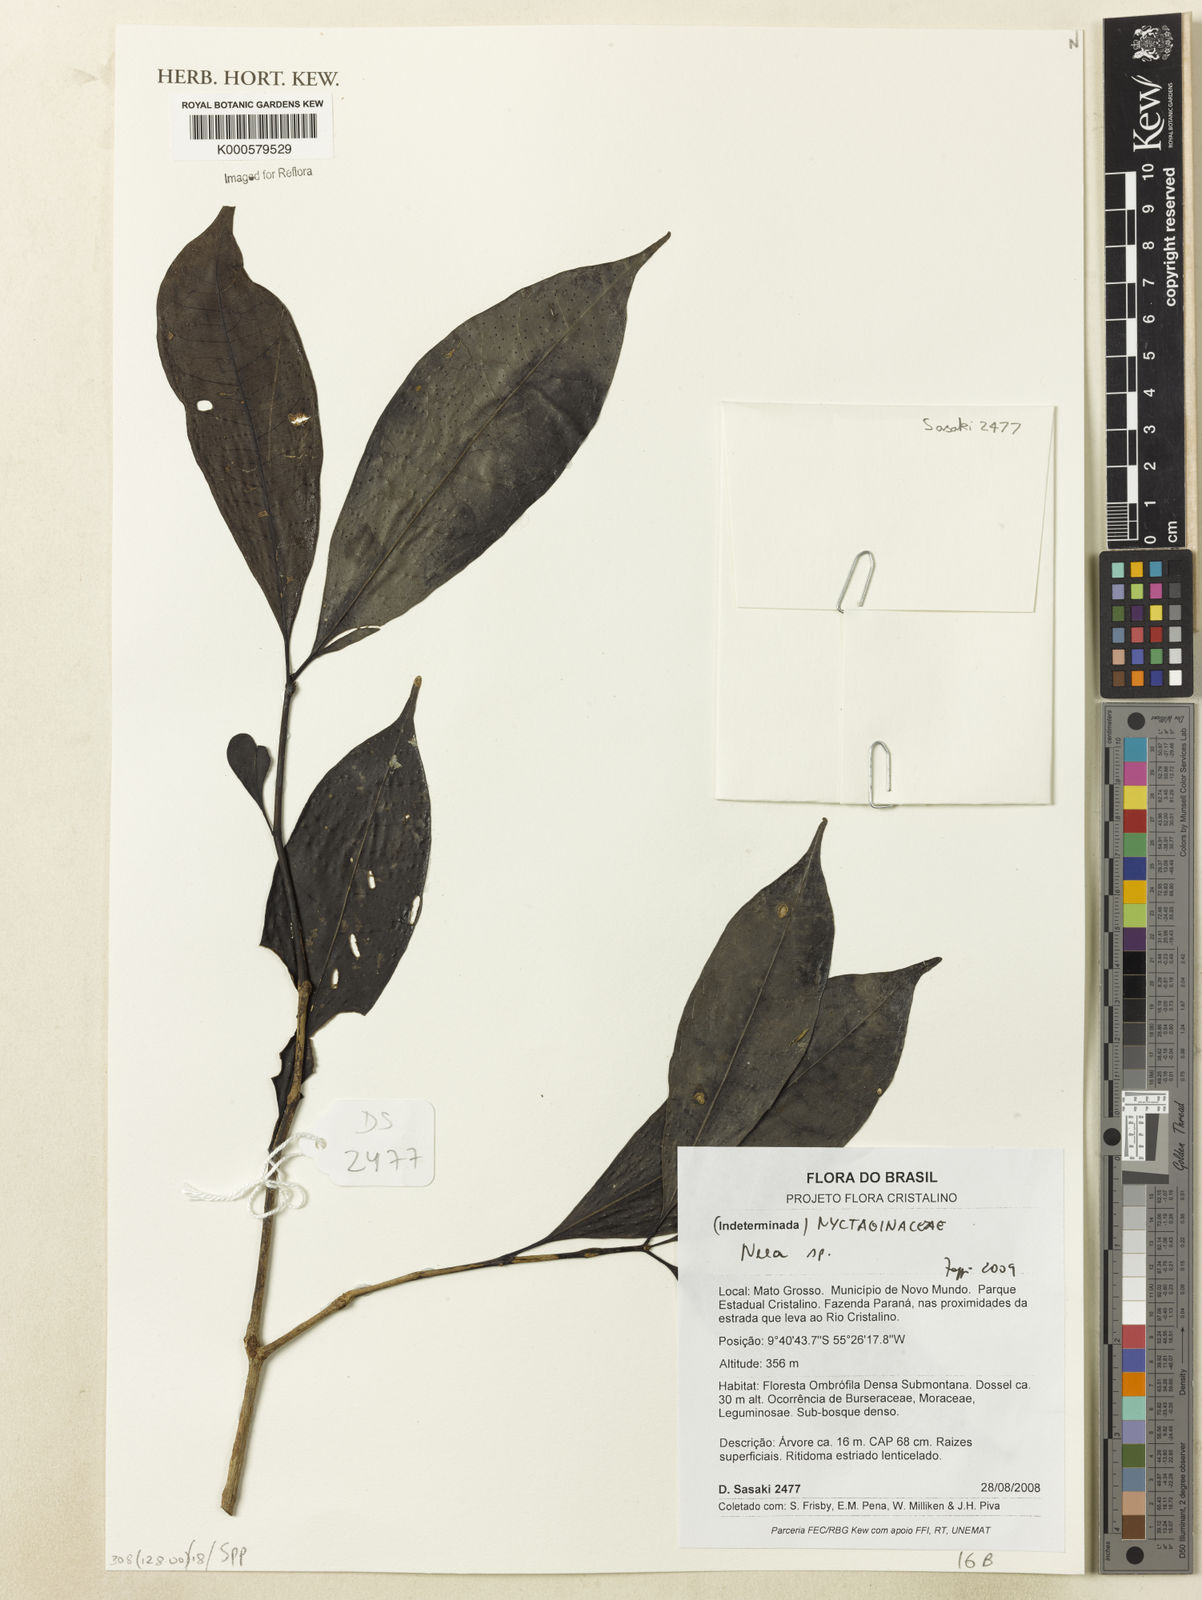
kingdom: Plantae
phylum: Tracheophyta
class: Magnoliopsida
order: Caryophyllales
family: Nyctaginaceae
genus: Neea
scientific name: Neea
